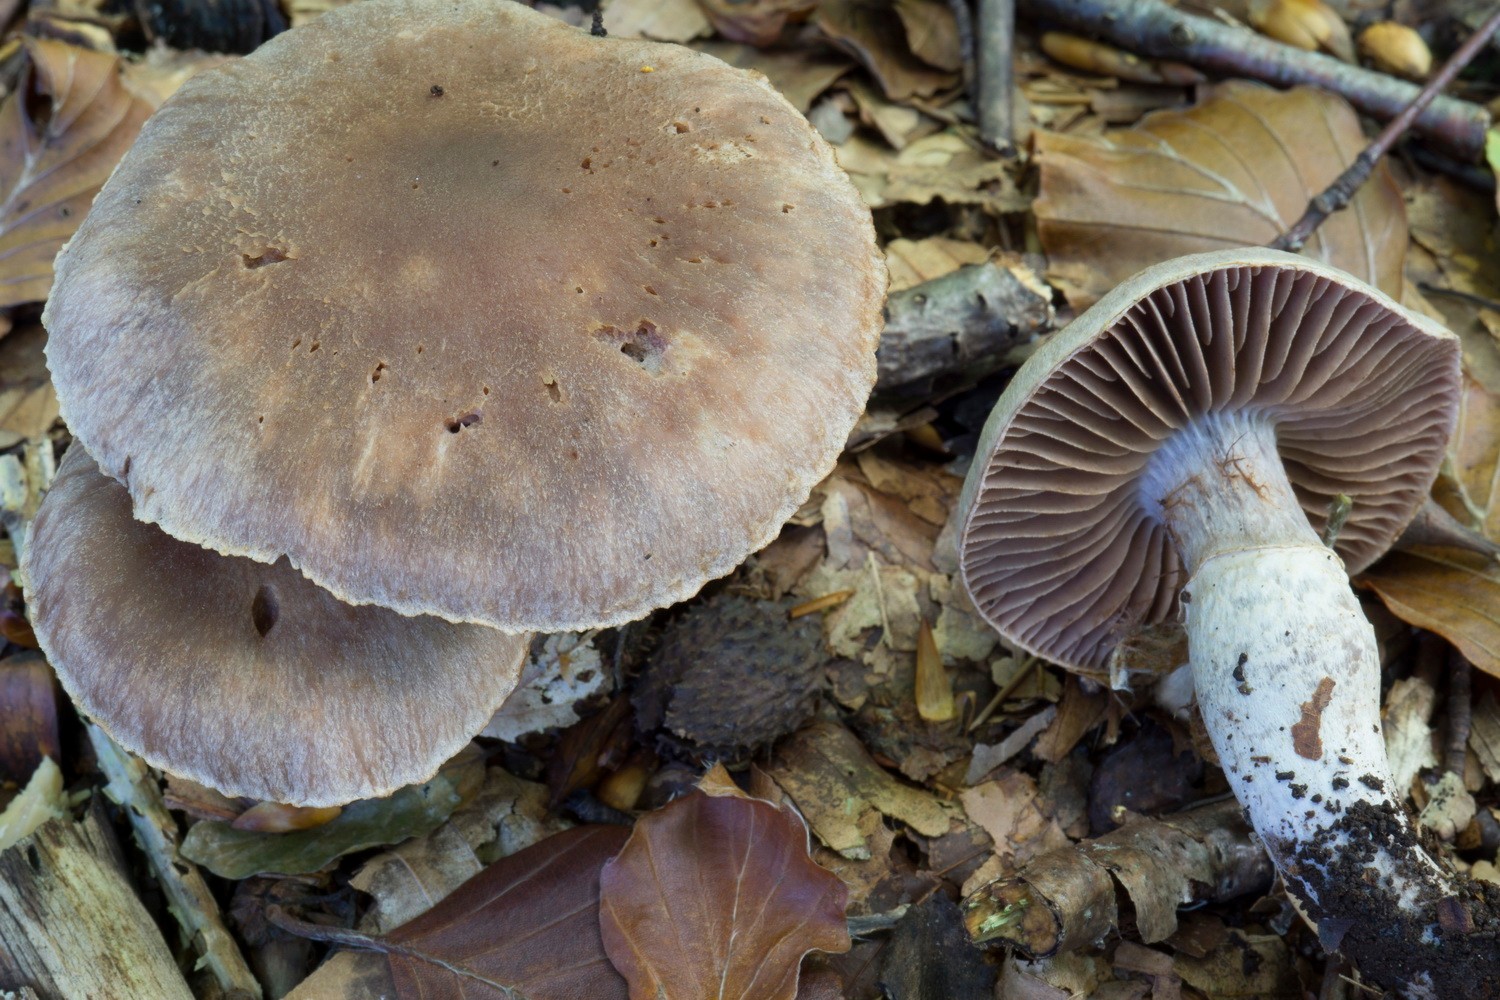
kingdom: Fungi
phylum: Basidiomycota
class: Agaricomycetes
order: Agaricales
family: Cortinariaceae
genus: Cortinarius
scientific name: Cortinarius torvus
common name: champignonagtig slørhat
